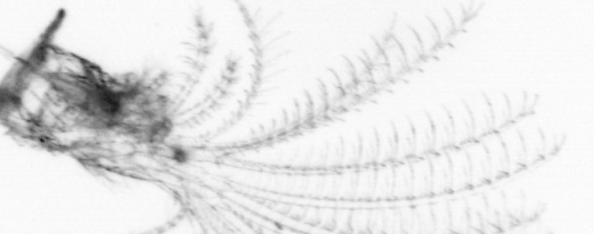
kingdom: Animalia
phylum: Arthropoda
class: Maxillopoda
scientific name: Maxillopoda
